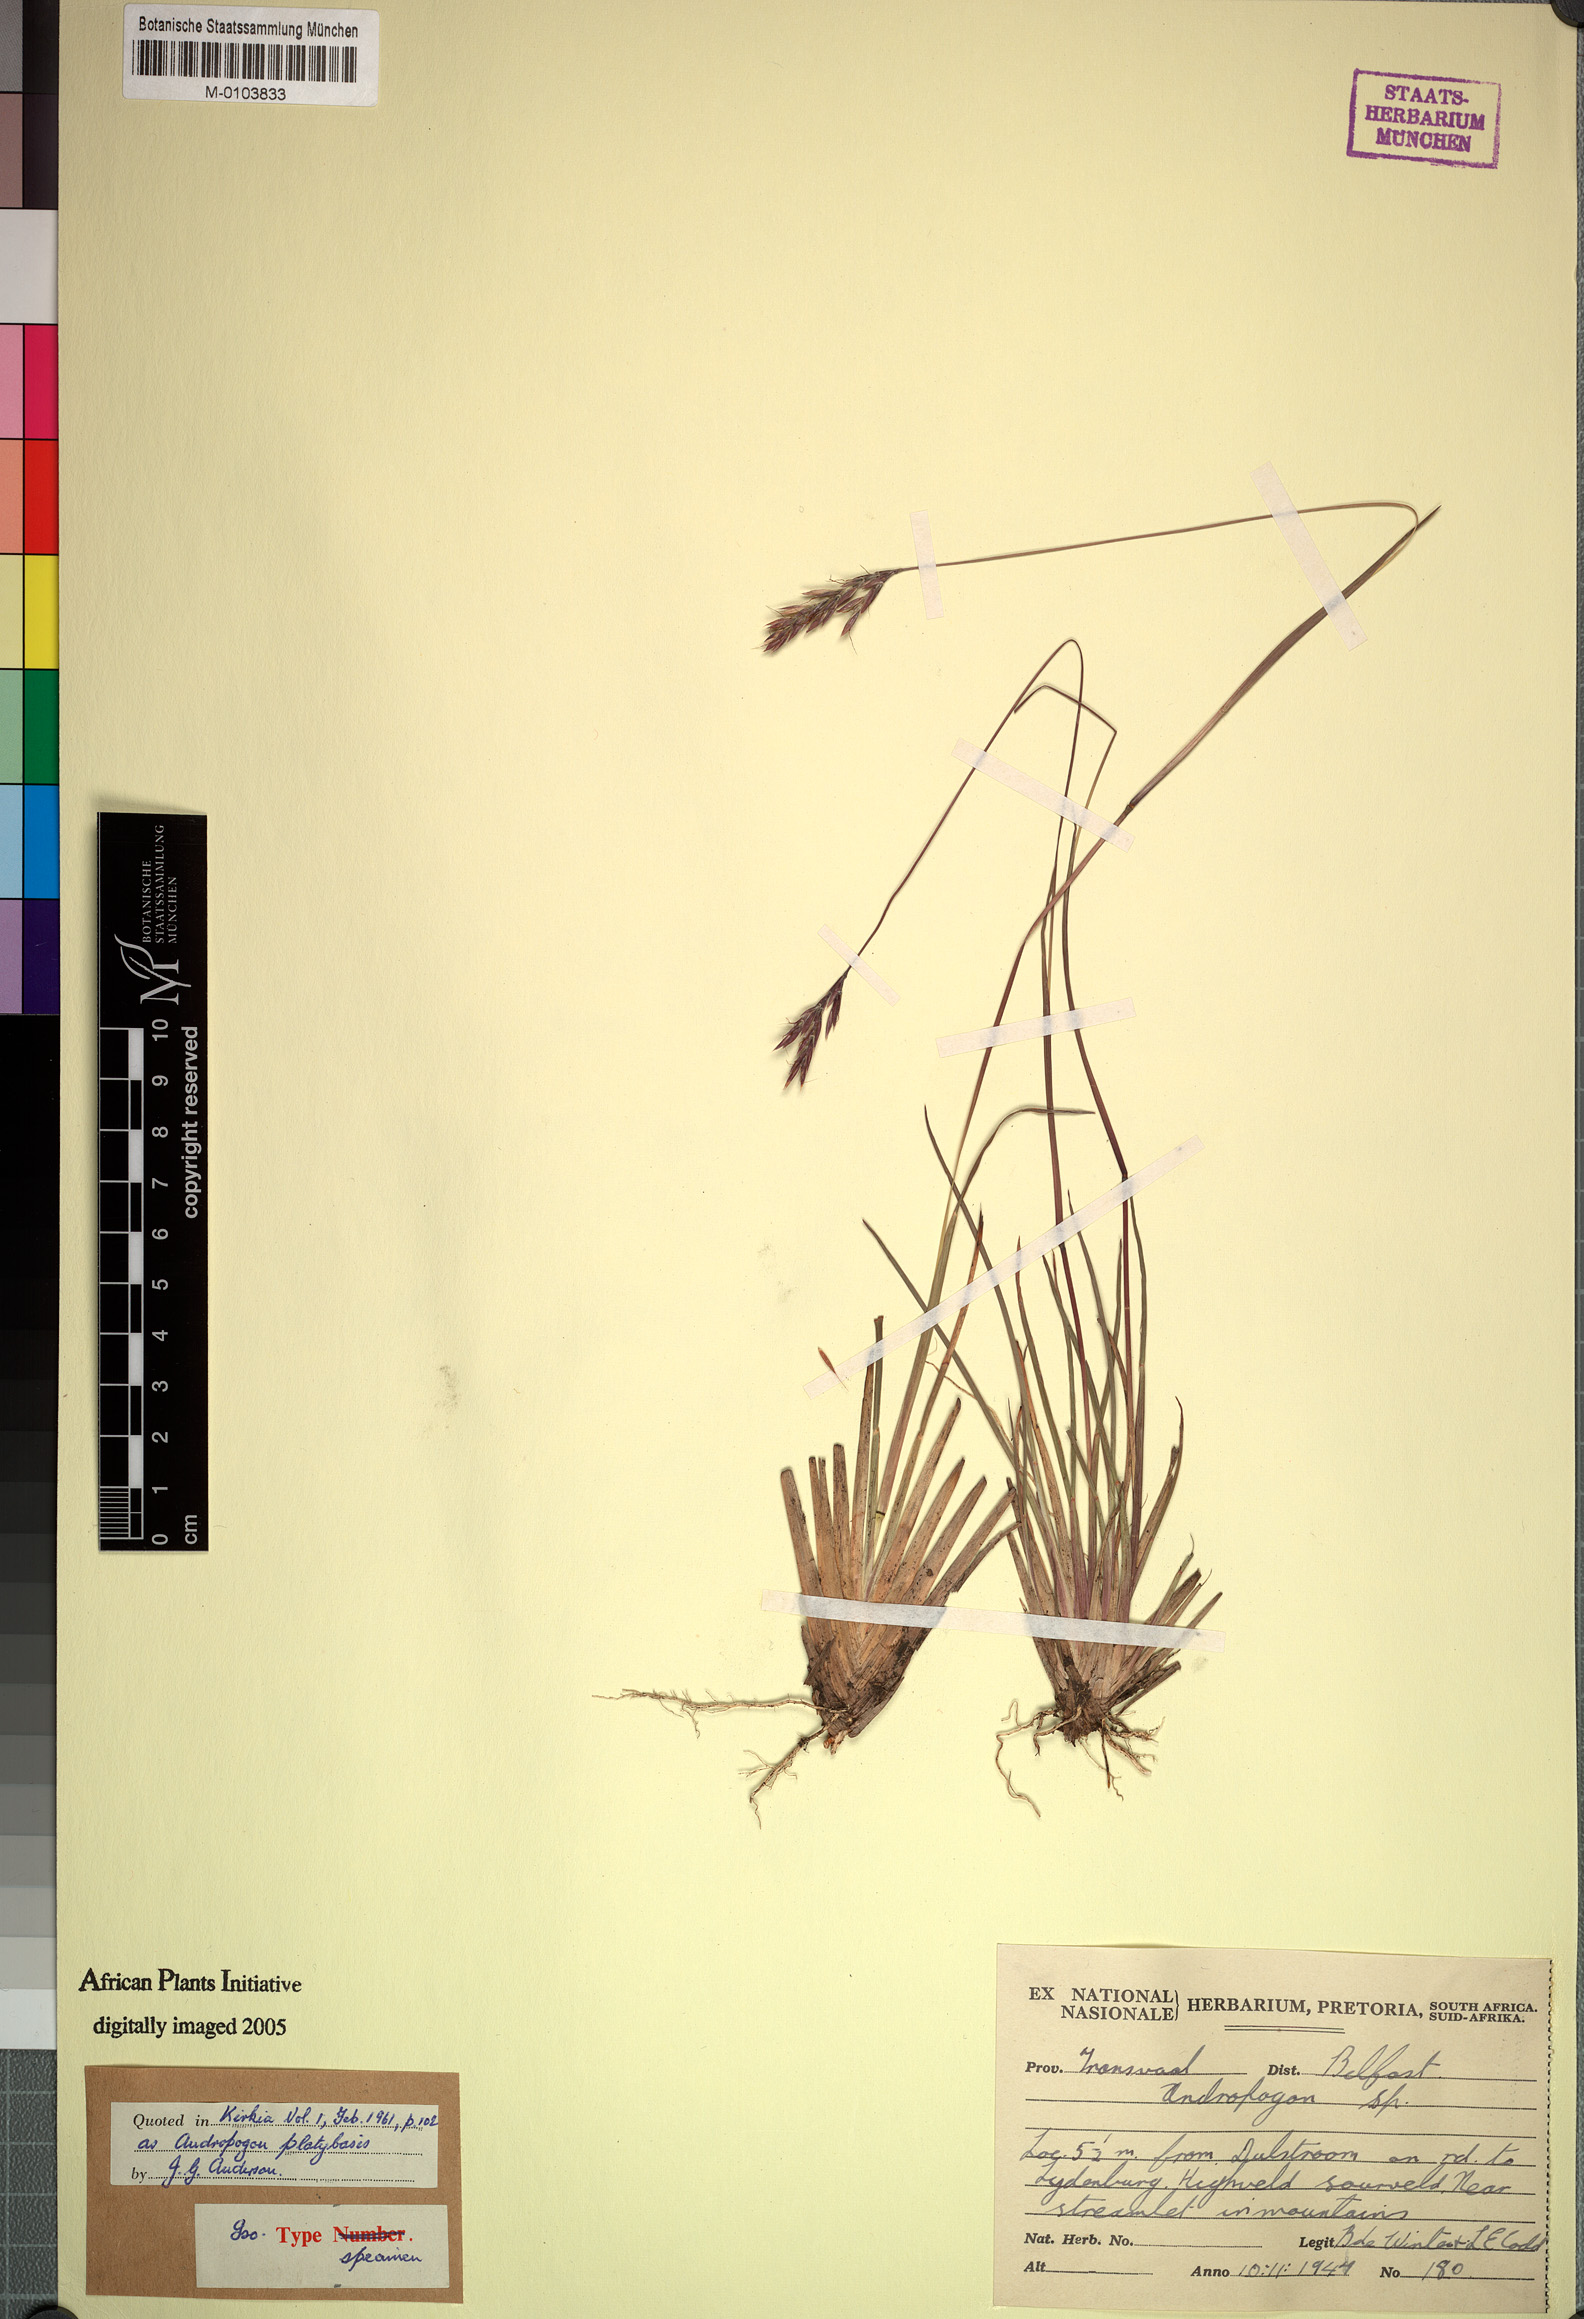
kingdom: Plantae
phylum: Tracheophyta
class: Liliopsida
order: Poales
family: Poaceae
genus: Andropogon
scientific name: Andropogon mannii
